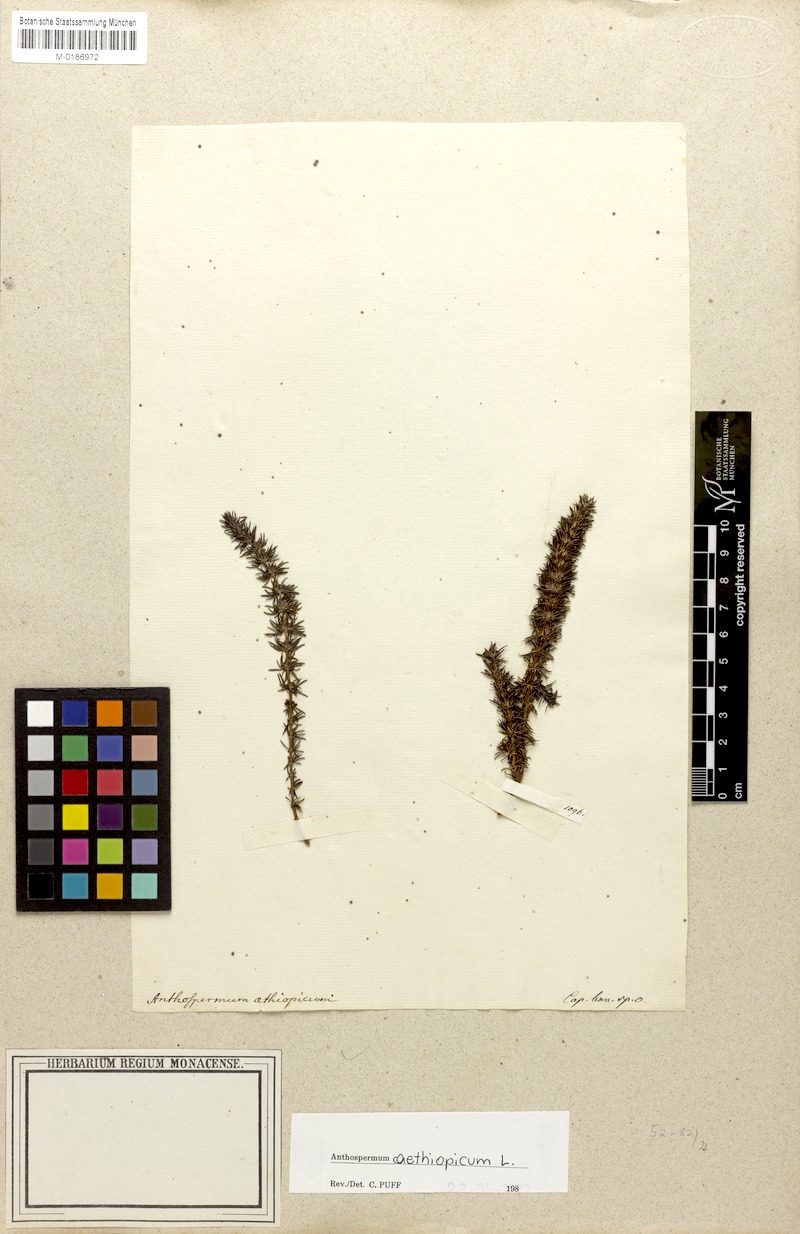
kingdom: Plantae
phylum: Tracheophyta
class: Magnoliopsida
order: Gentianales
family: Rubiaceae
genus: Anthospermum
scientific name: Anthospermum aethiopicum
